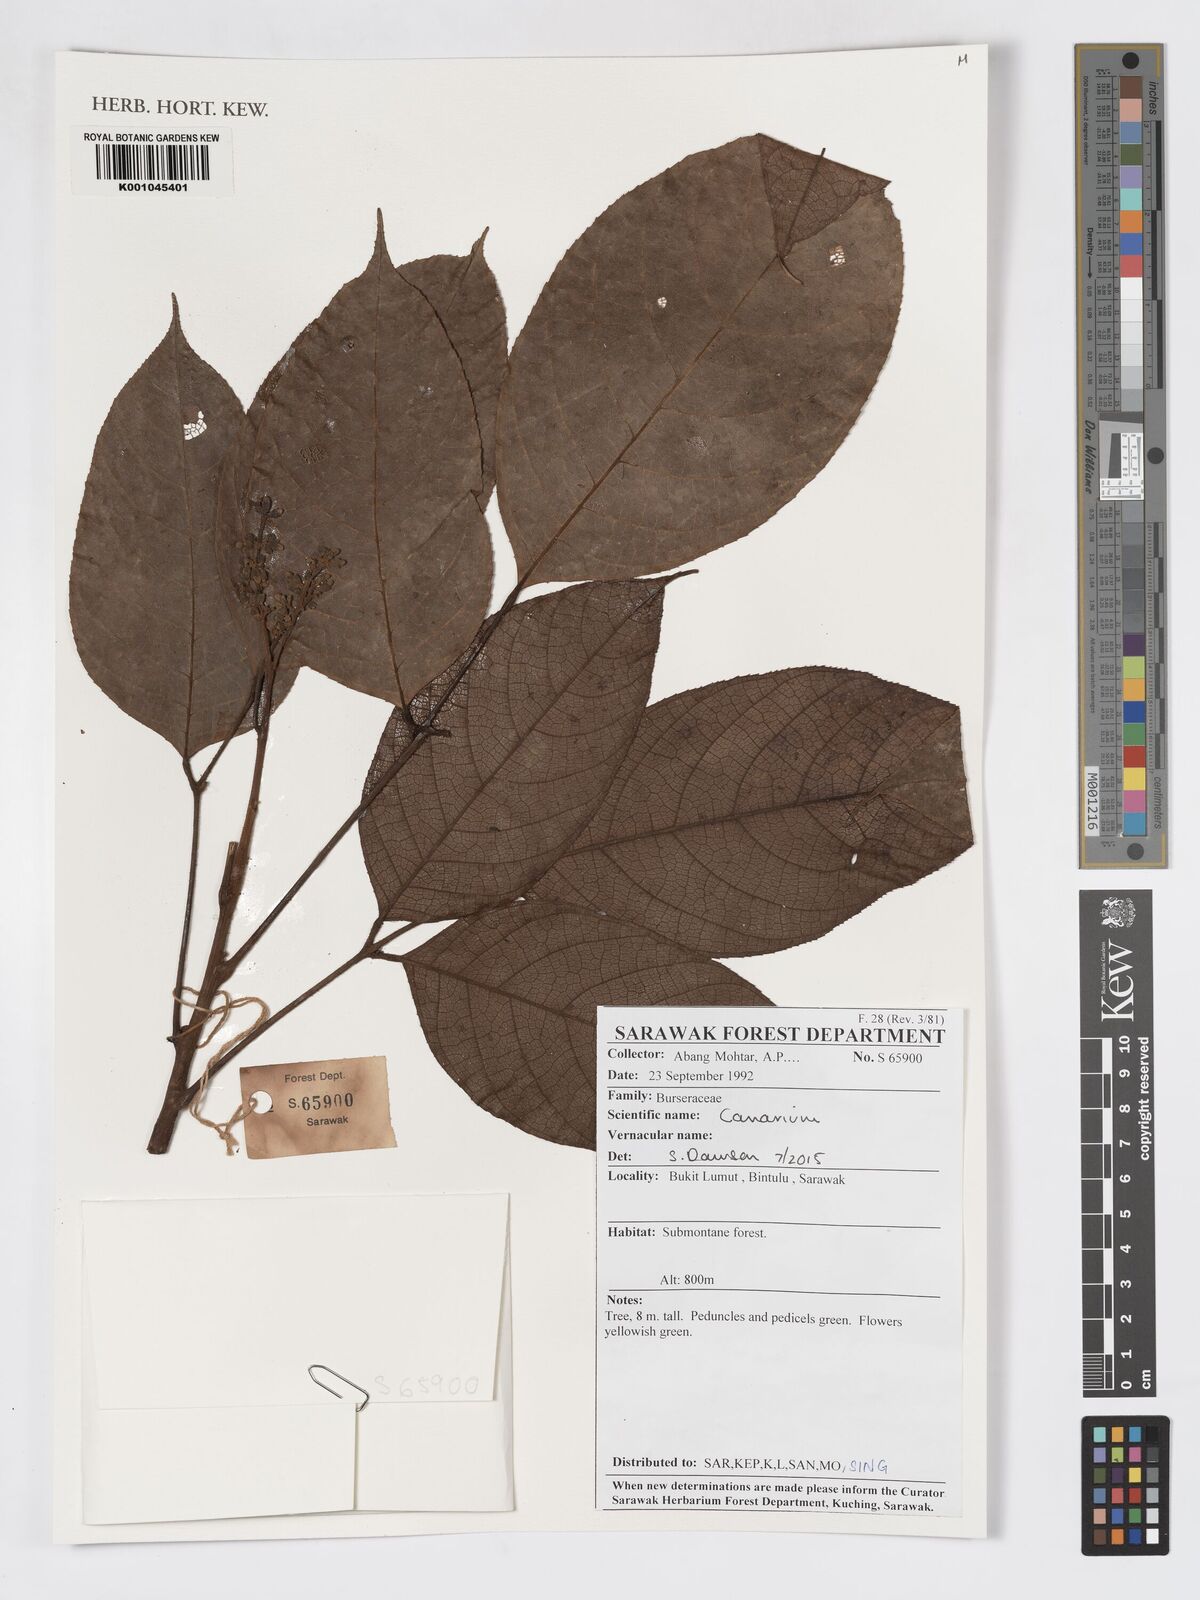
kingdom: Plantae
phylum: Tracheophyta
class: Magnoliopsida
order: Sapindales
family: Burseraceae
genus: Canarium
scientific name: Canarium
